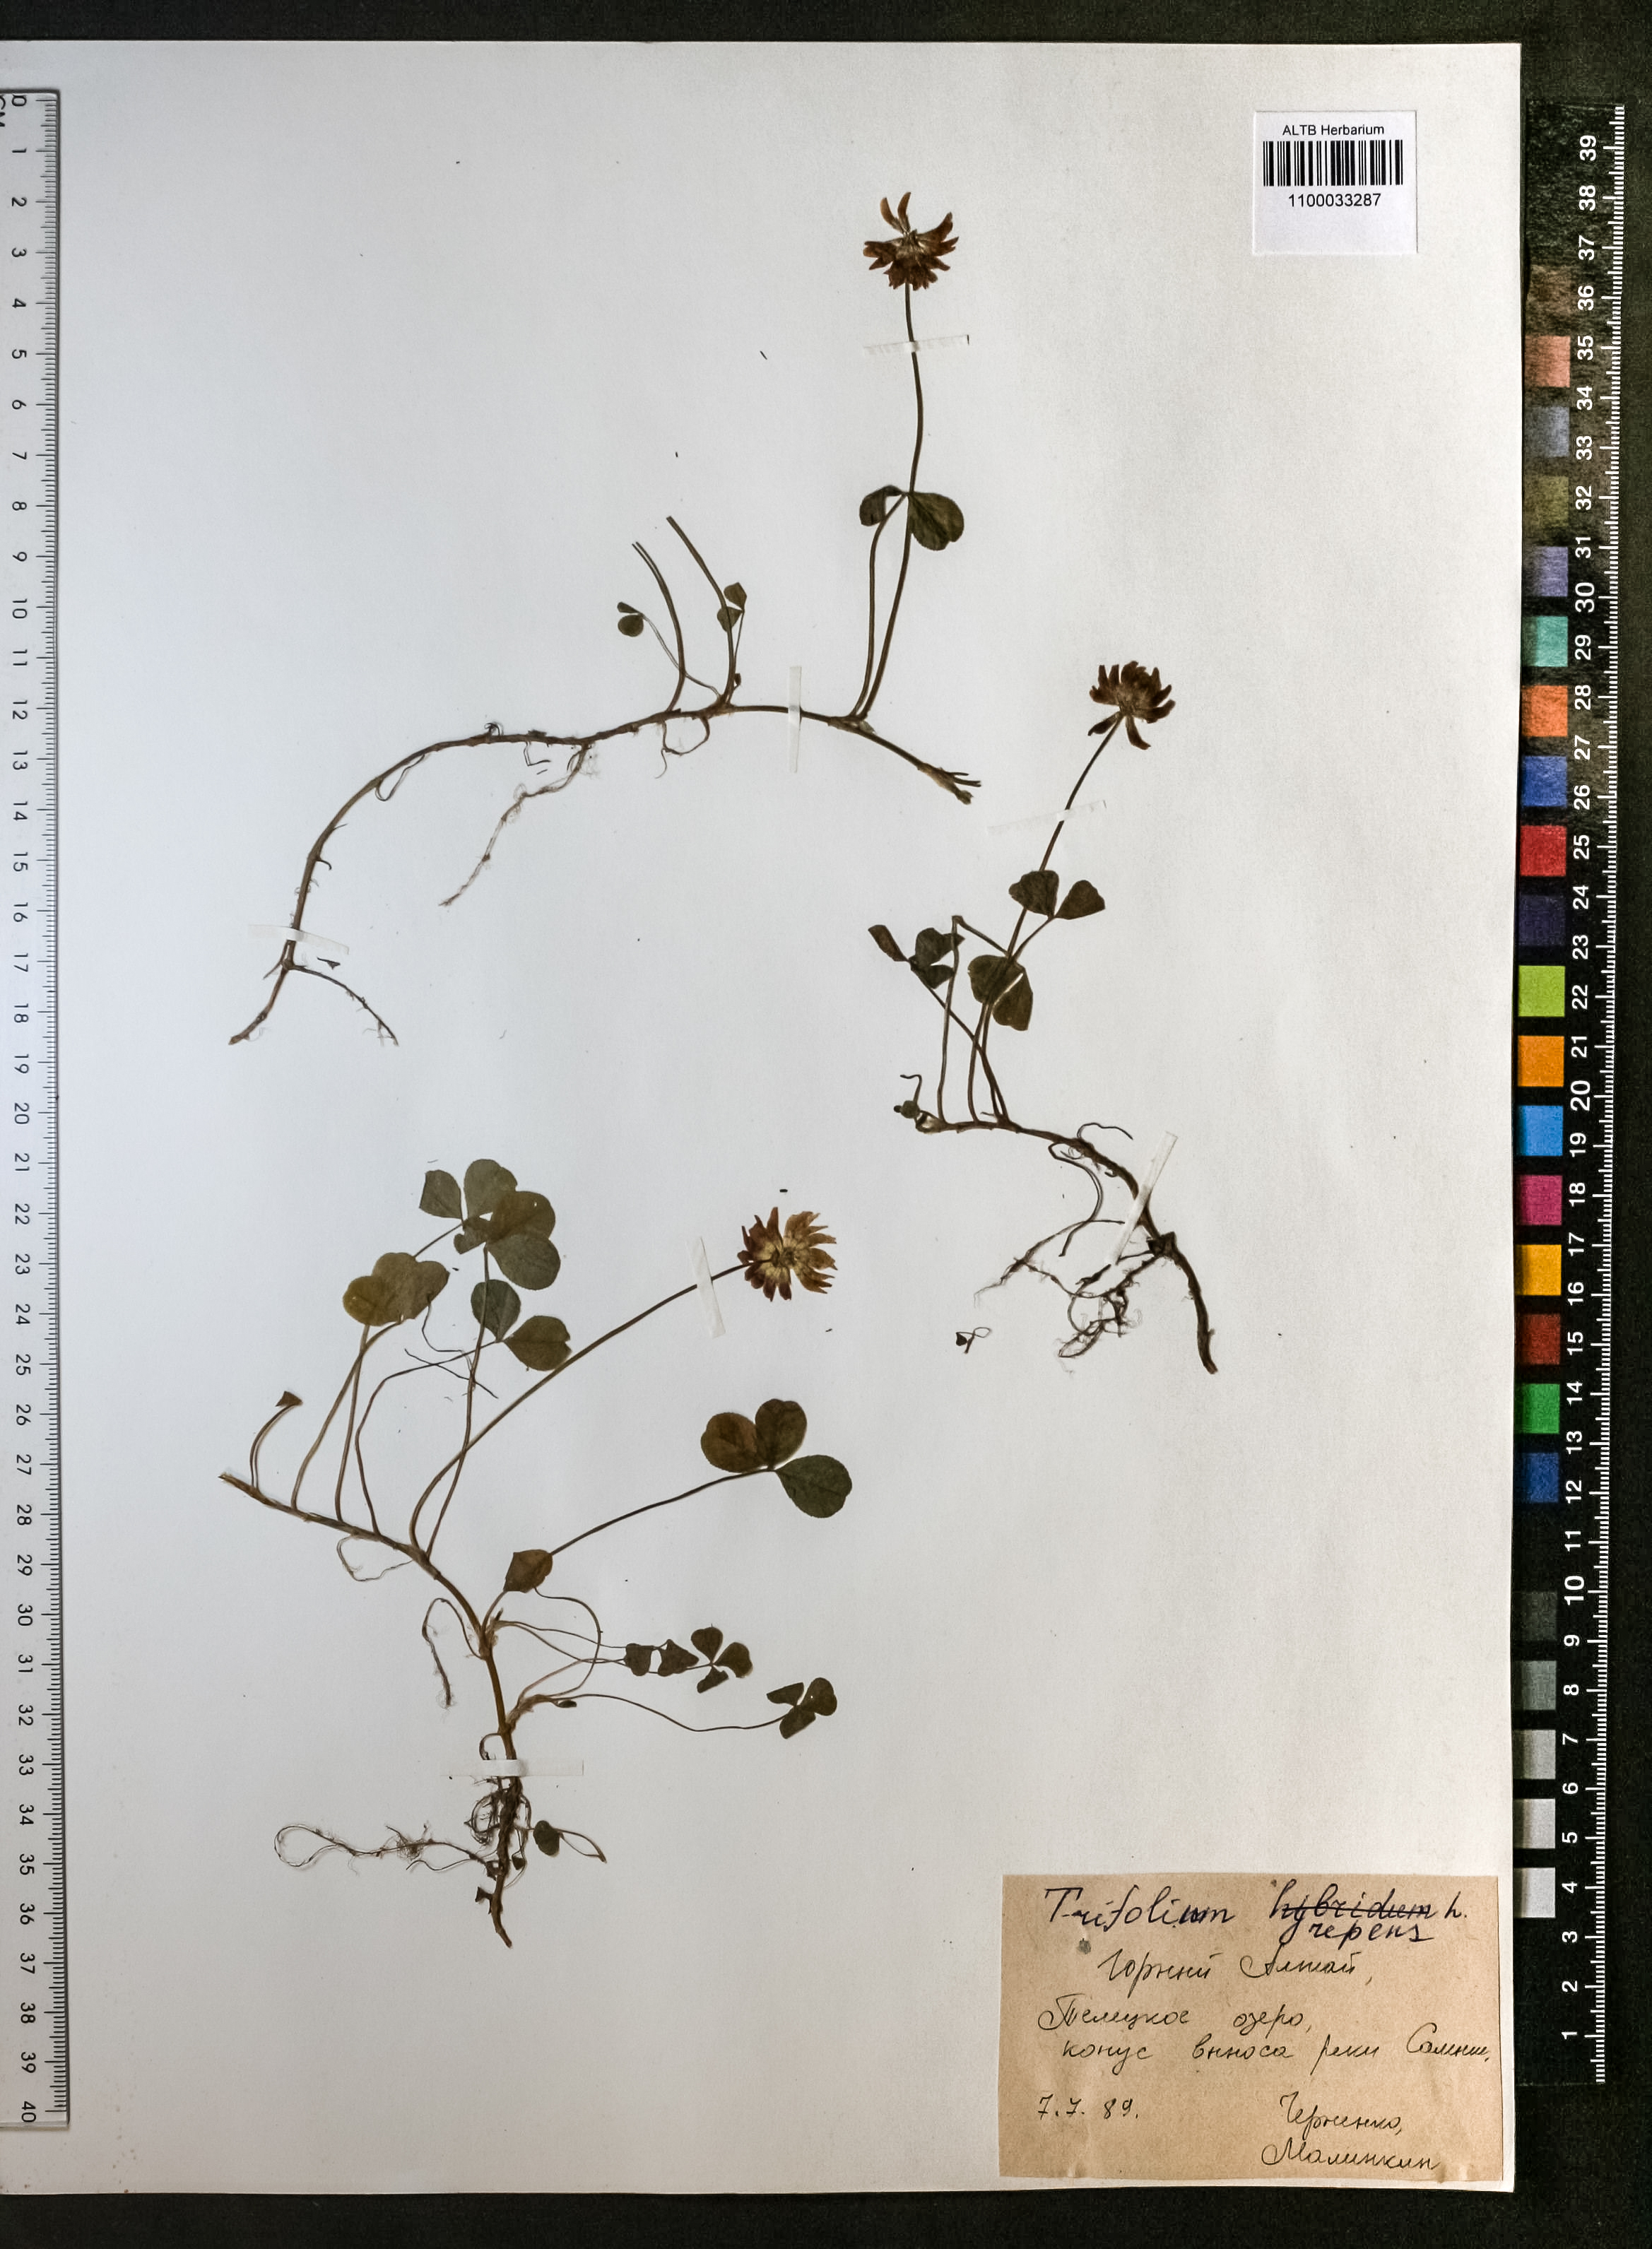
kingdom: Plantae
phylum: Tracheophyta
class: Magnoliopsida
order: Fabales
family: Fabaceae
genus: Trifolium
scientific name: Trifolium repens
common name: White clover
